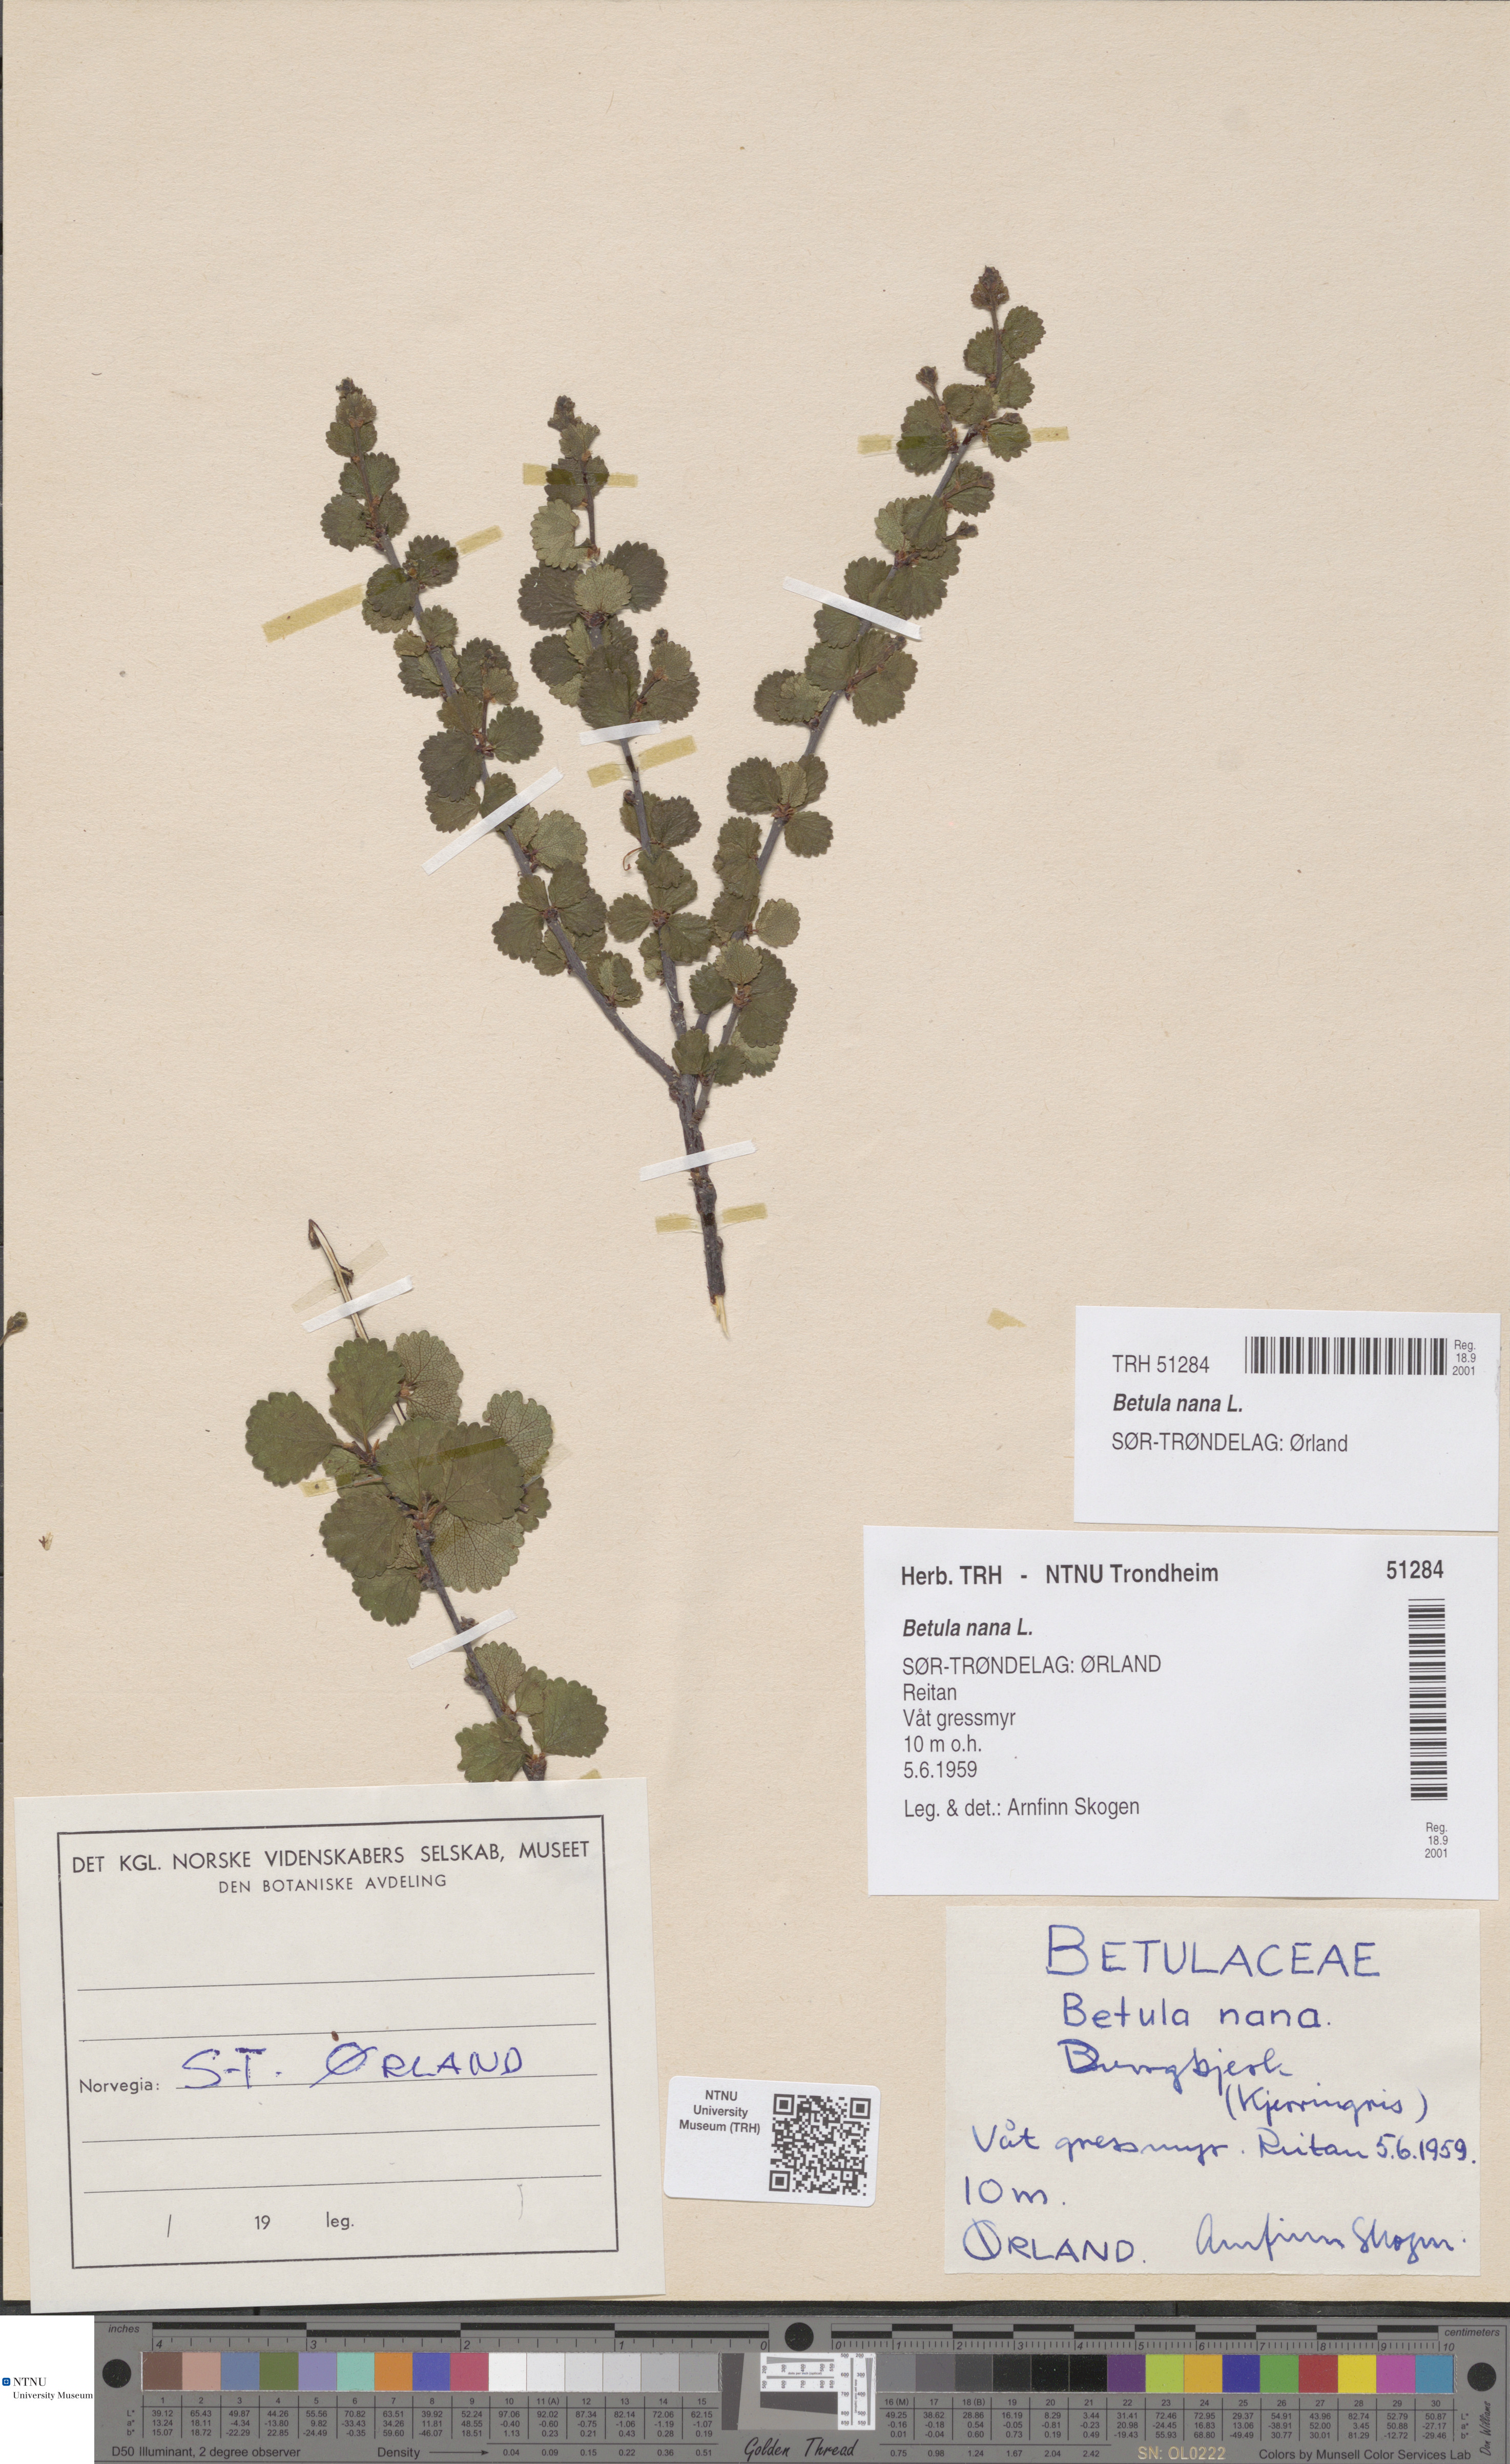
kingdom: Plantae
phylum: Tracheophyta
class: Magnoliopsida
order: Fagales
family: Betulaceae
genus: Betula
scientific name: Betula nana
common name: Arctic dwarf birch
